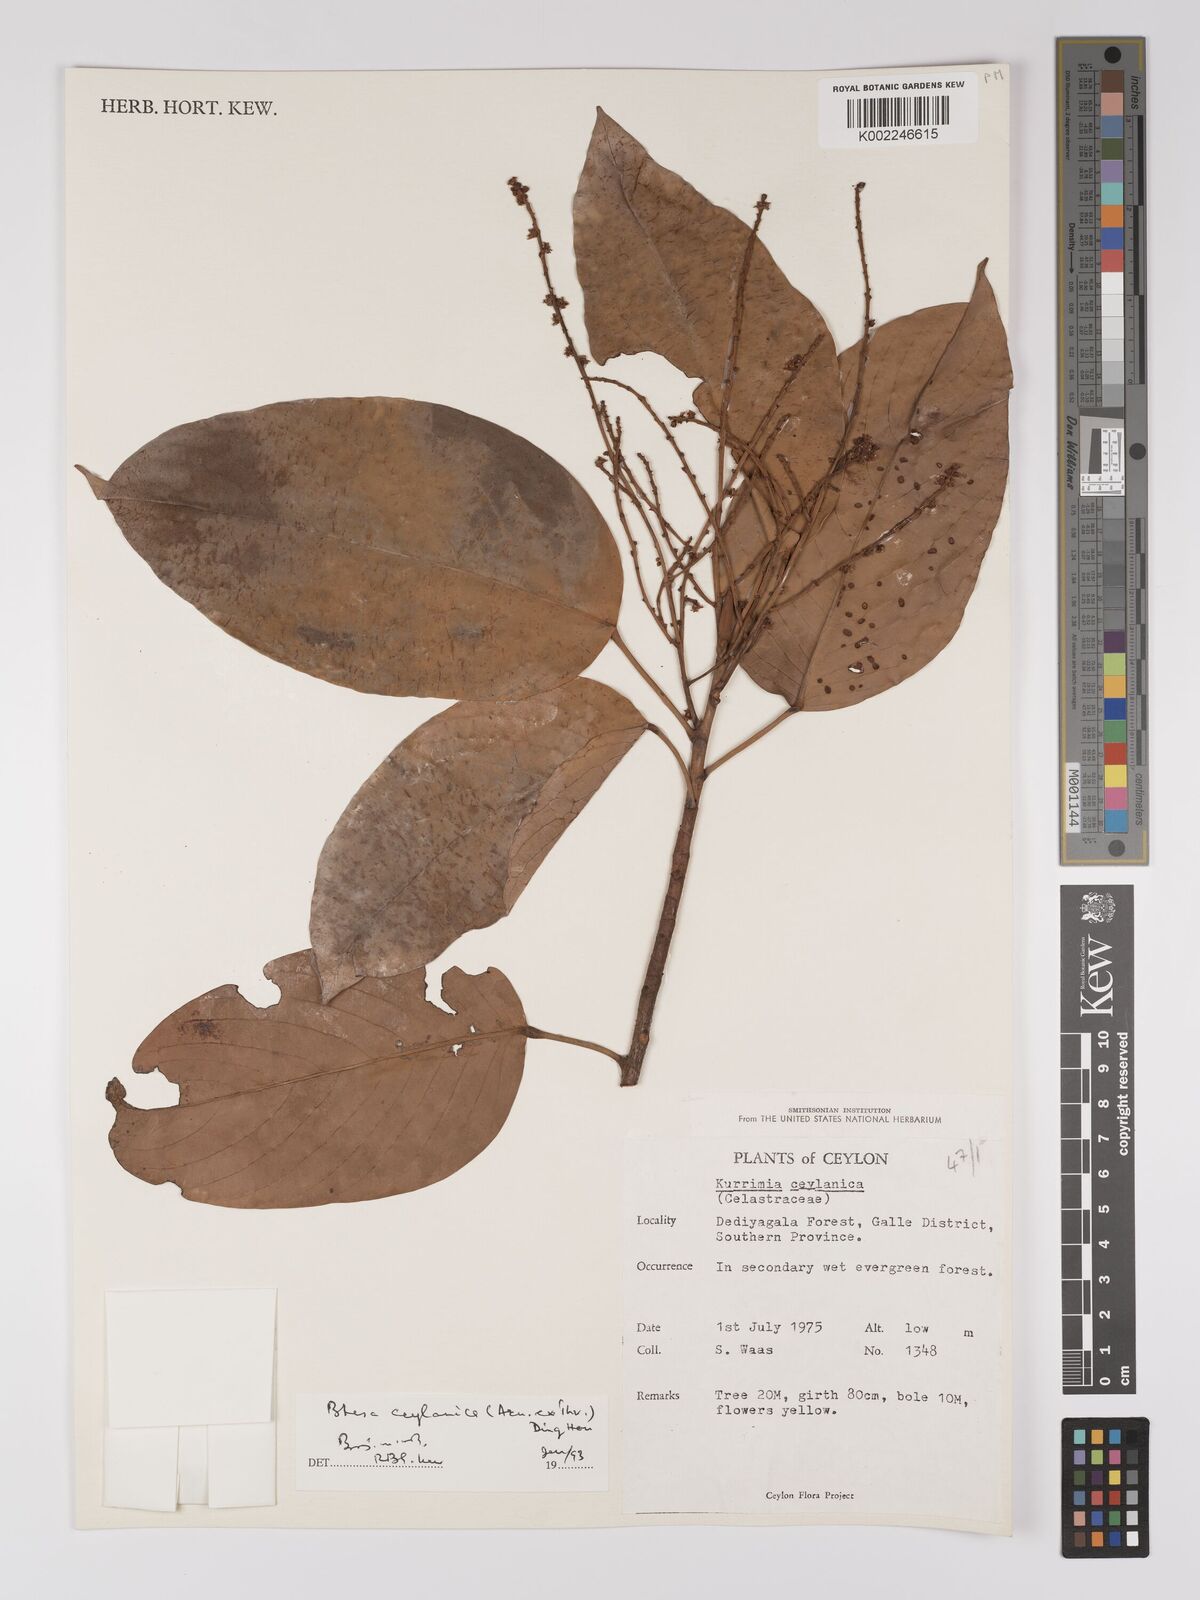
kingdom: Plantae
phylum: Tracheophyta
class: Magnoliopsida
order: Malpighiales
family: Centroplacaceae
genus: Bhesa
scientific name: Bhesa ceylanica
